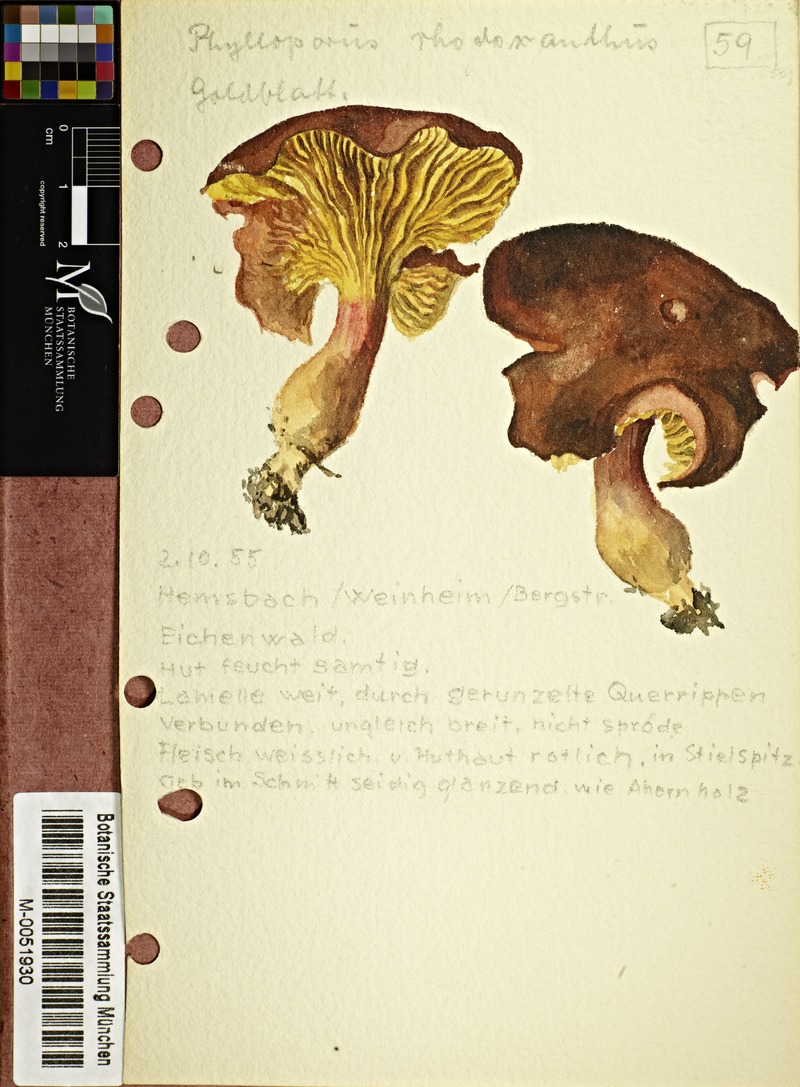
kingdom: Fungi
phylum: Basidiomycota
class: Agaricomycetes
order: Boletales
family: Boletaceae
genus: Phylloporus
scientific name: Phylloporus rhodoxanthus
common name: Golden gilled bolete
